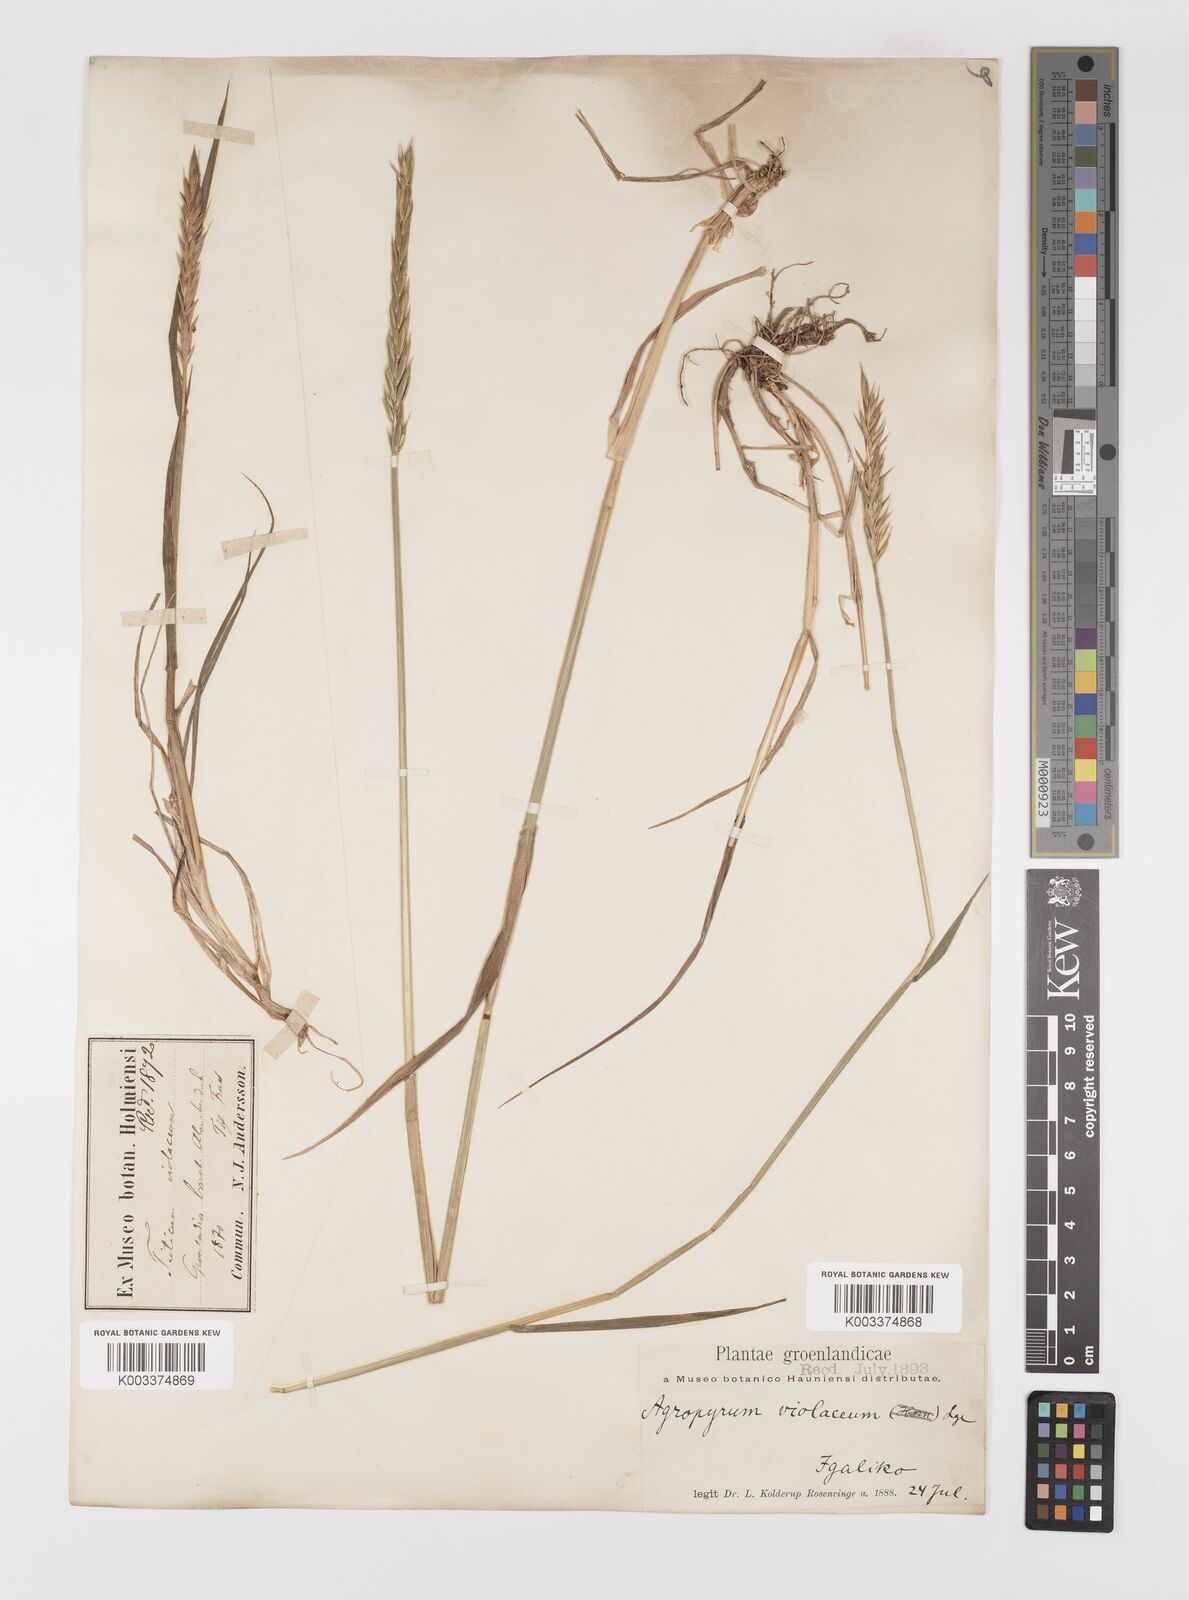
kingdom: Plantae
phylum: Tracheophyta
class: Liliopsida
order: Poales
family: Poaceae
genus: Elymus
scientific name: Elymus violaceus
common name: Arctic wheatgrass
